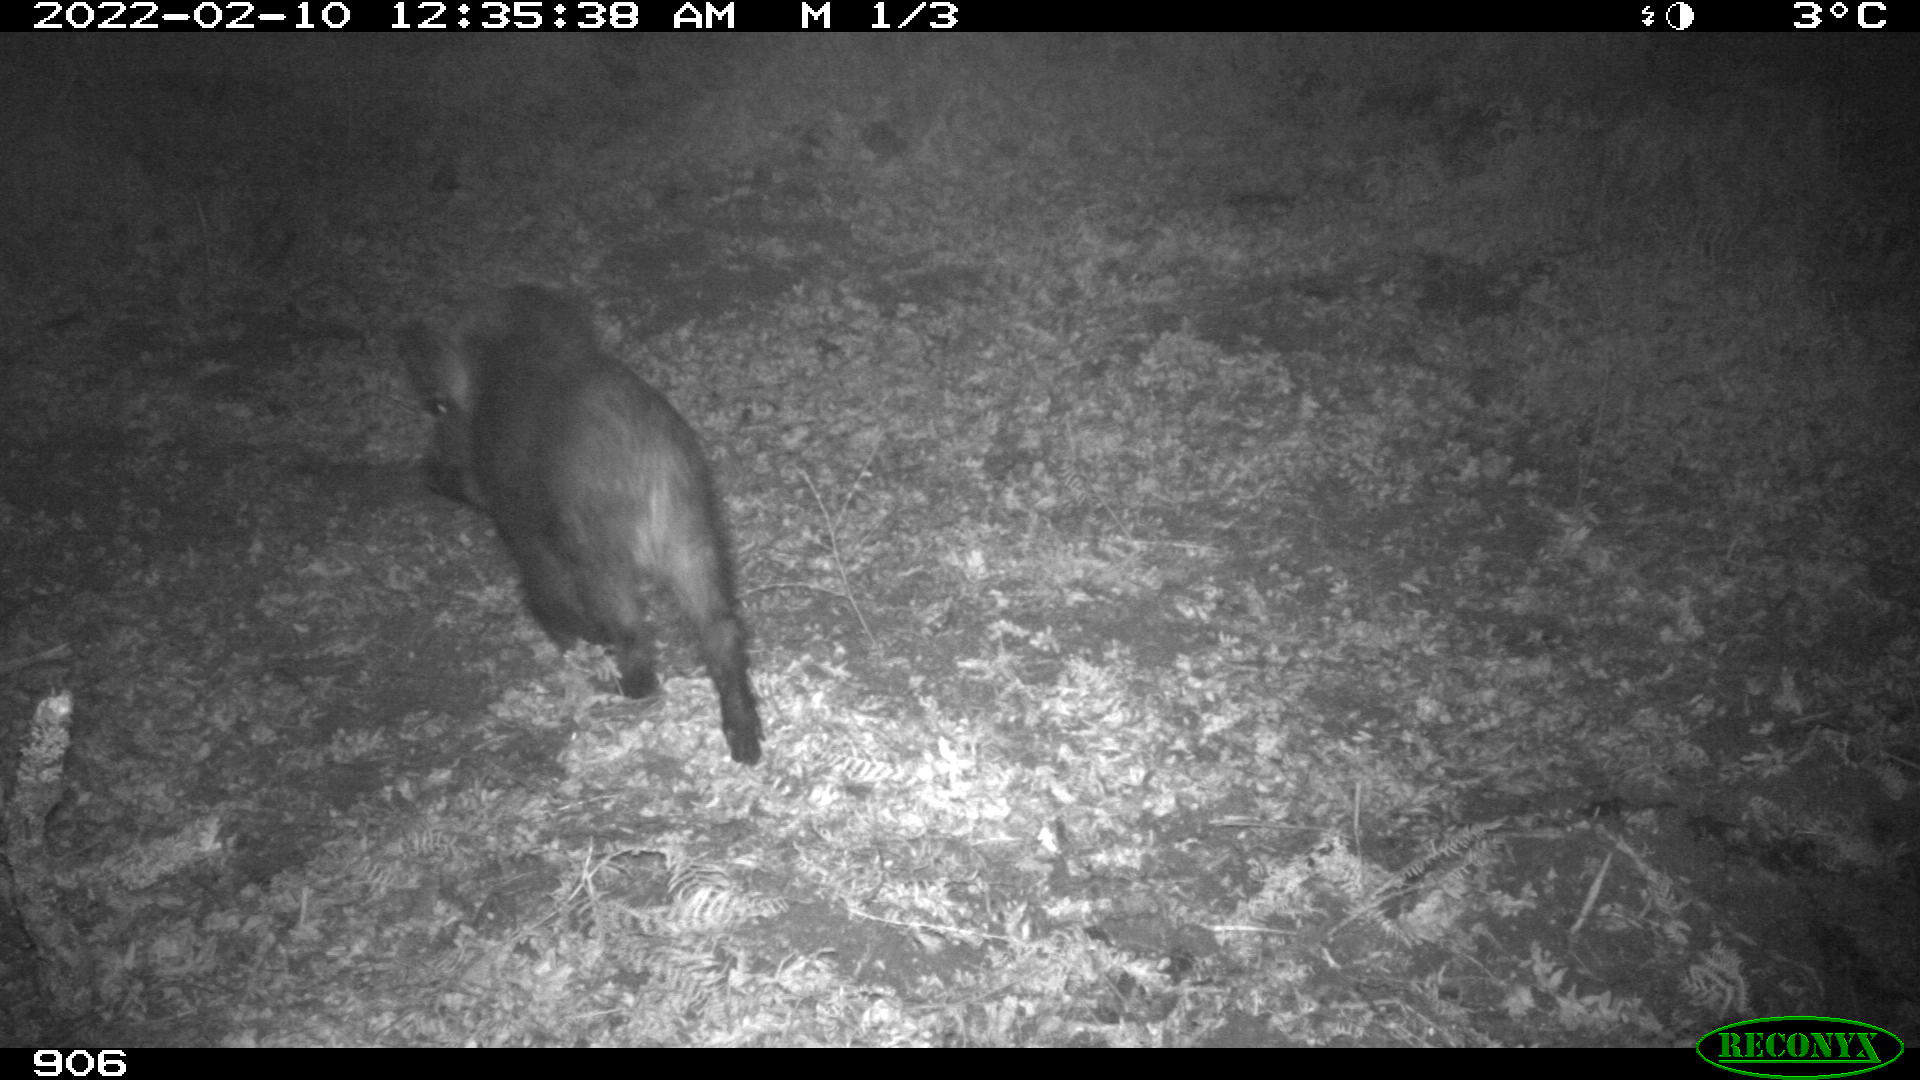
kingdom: Animalia
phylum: Chordata
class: Mammalia
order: Artiodactyla
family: Suidae
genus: Sus
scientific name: Sus scrofa
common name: Wild boar
